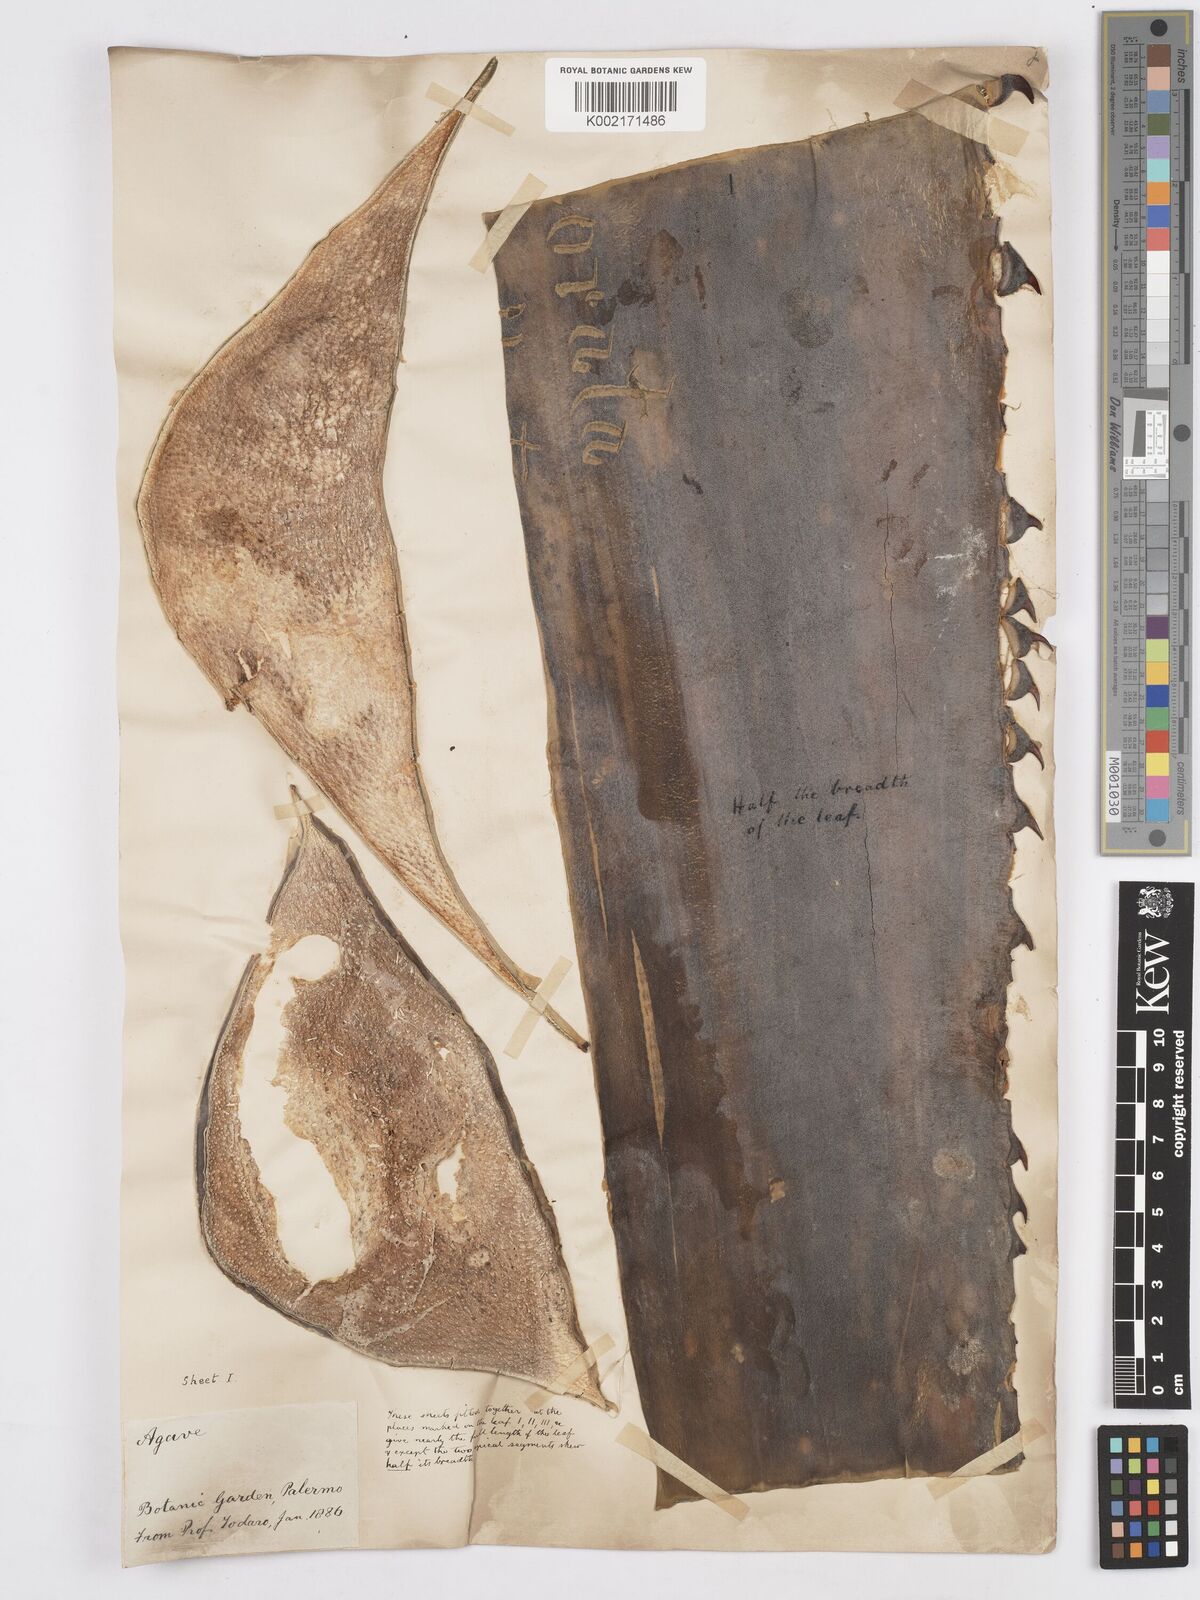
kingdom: Plantae
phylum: Tracheophyta
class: Liliopsida
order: Asparagales
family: Asparagaceae
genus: Agave
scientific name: Agave marmorata
